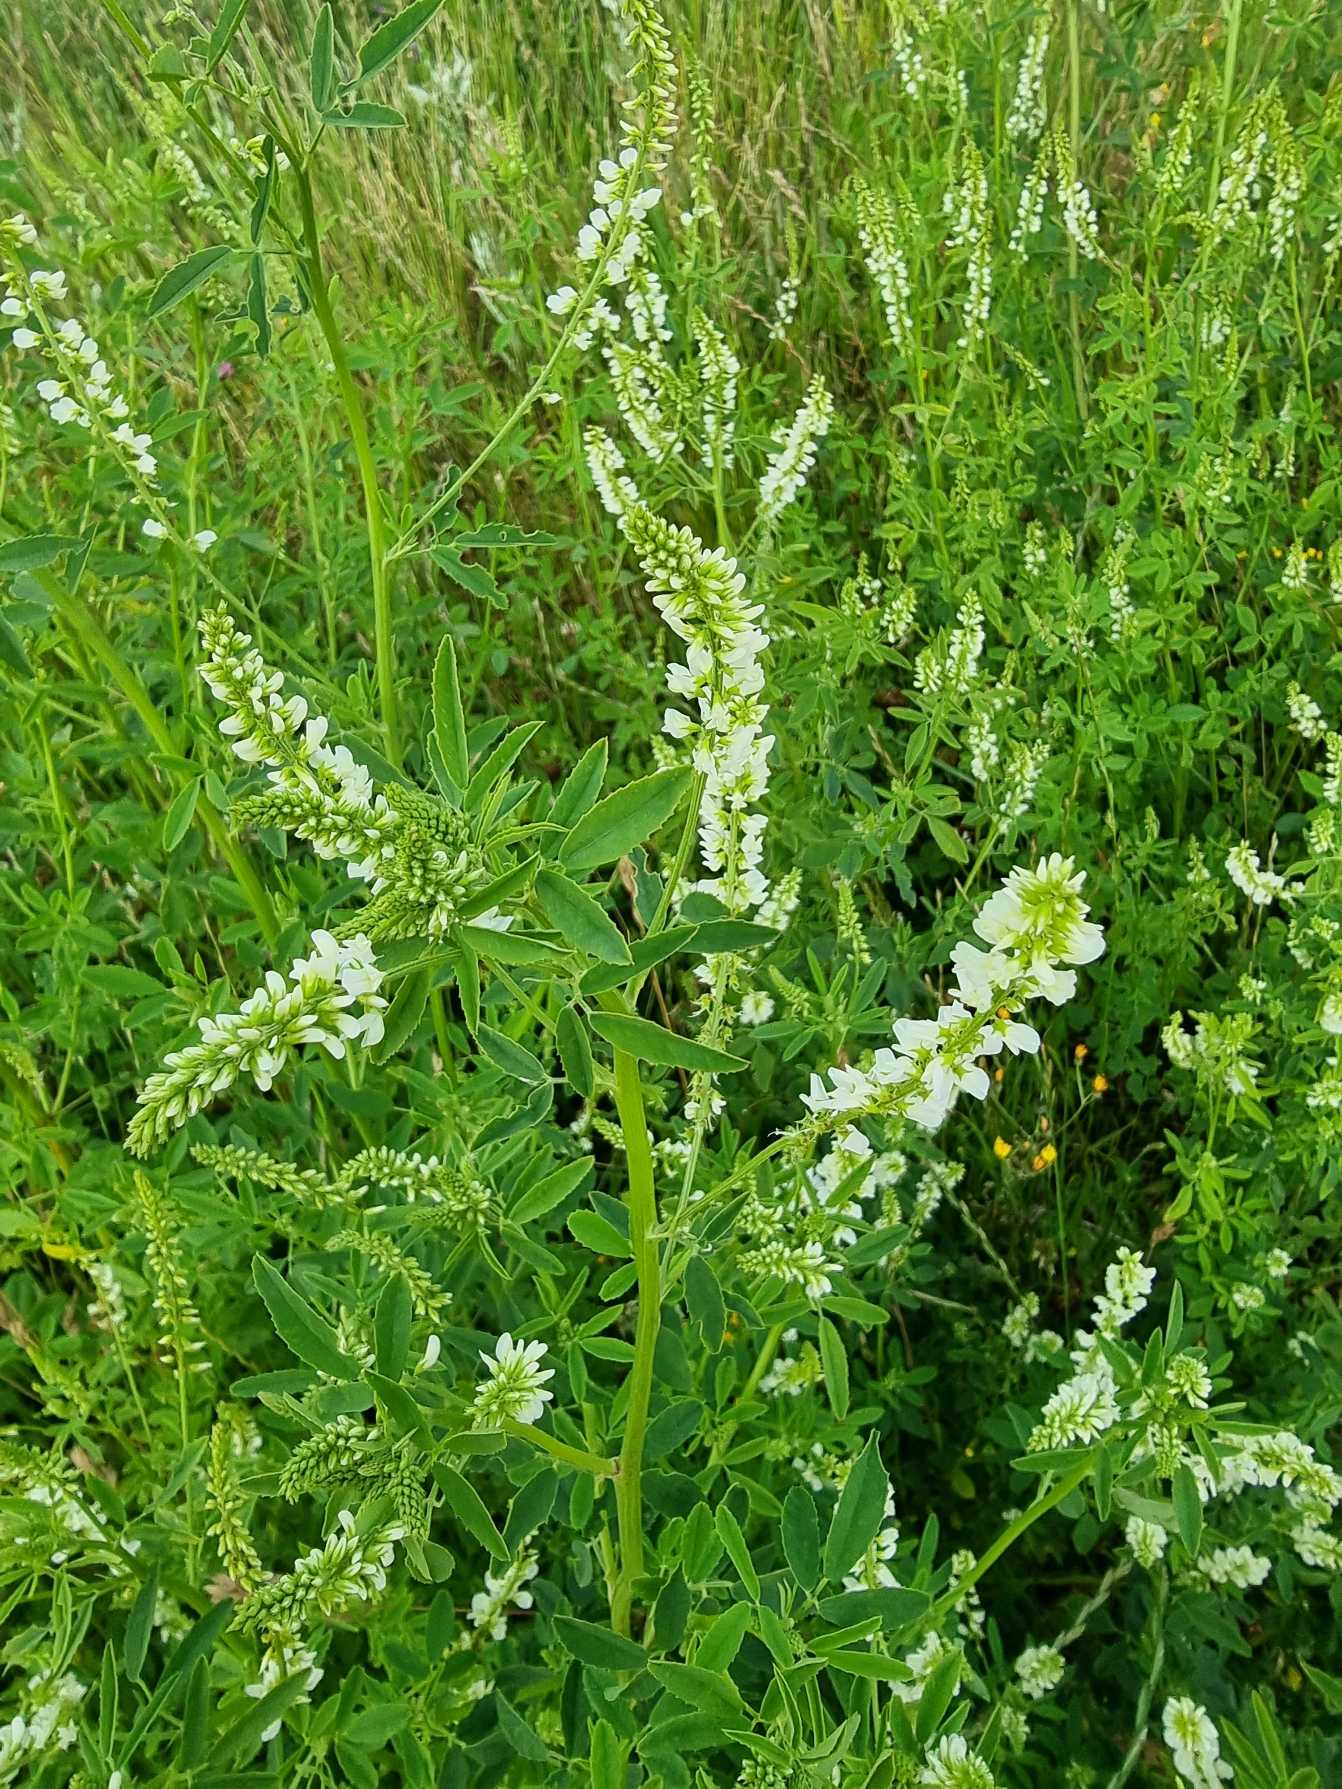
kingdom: Plantae
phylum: Tracheophyta
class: Magnoliopsida
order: Fabales
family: Fabaceae
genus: Melilotus
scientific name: Melilotus albus
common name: Hvid stenkløver
